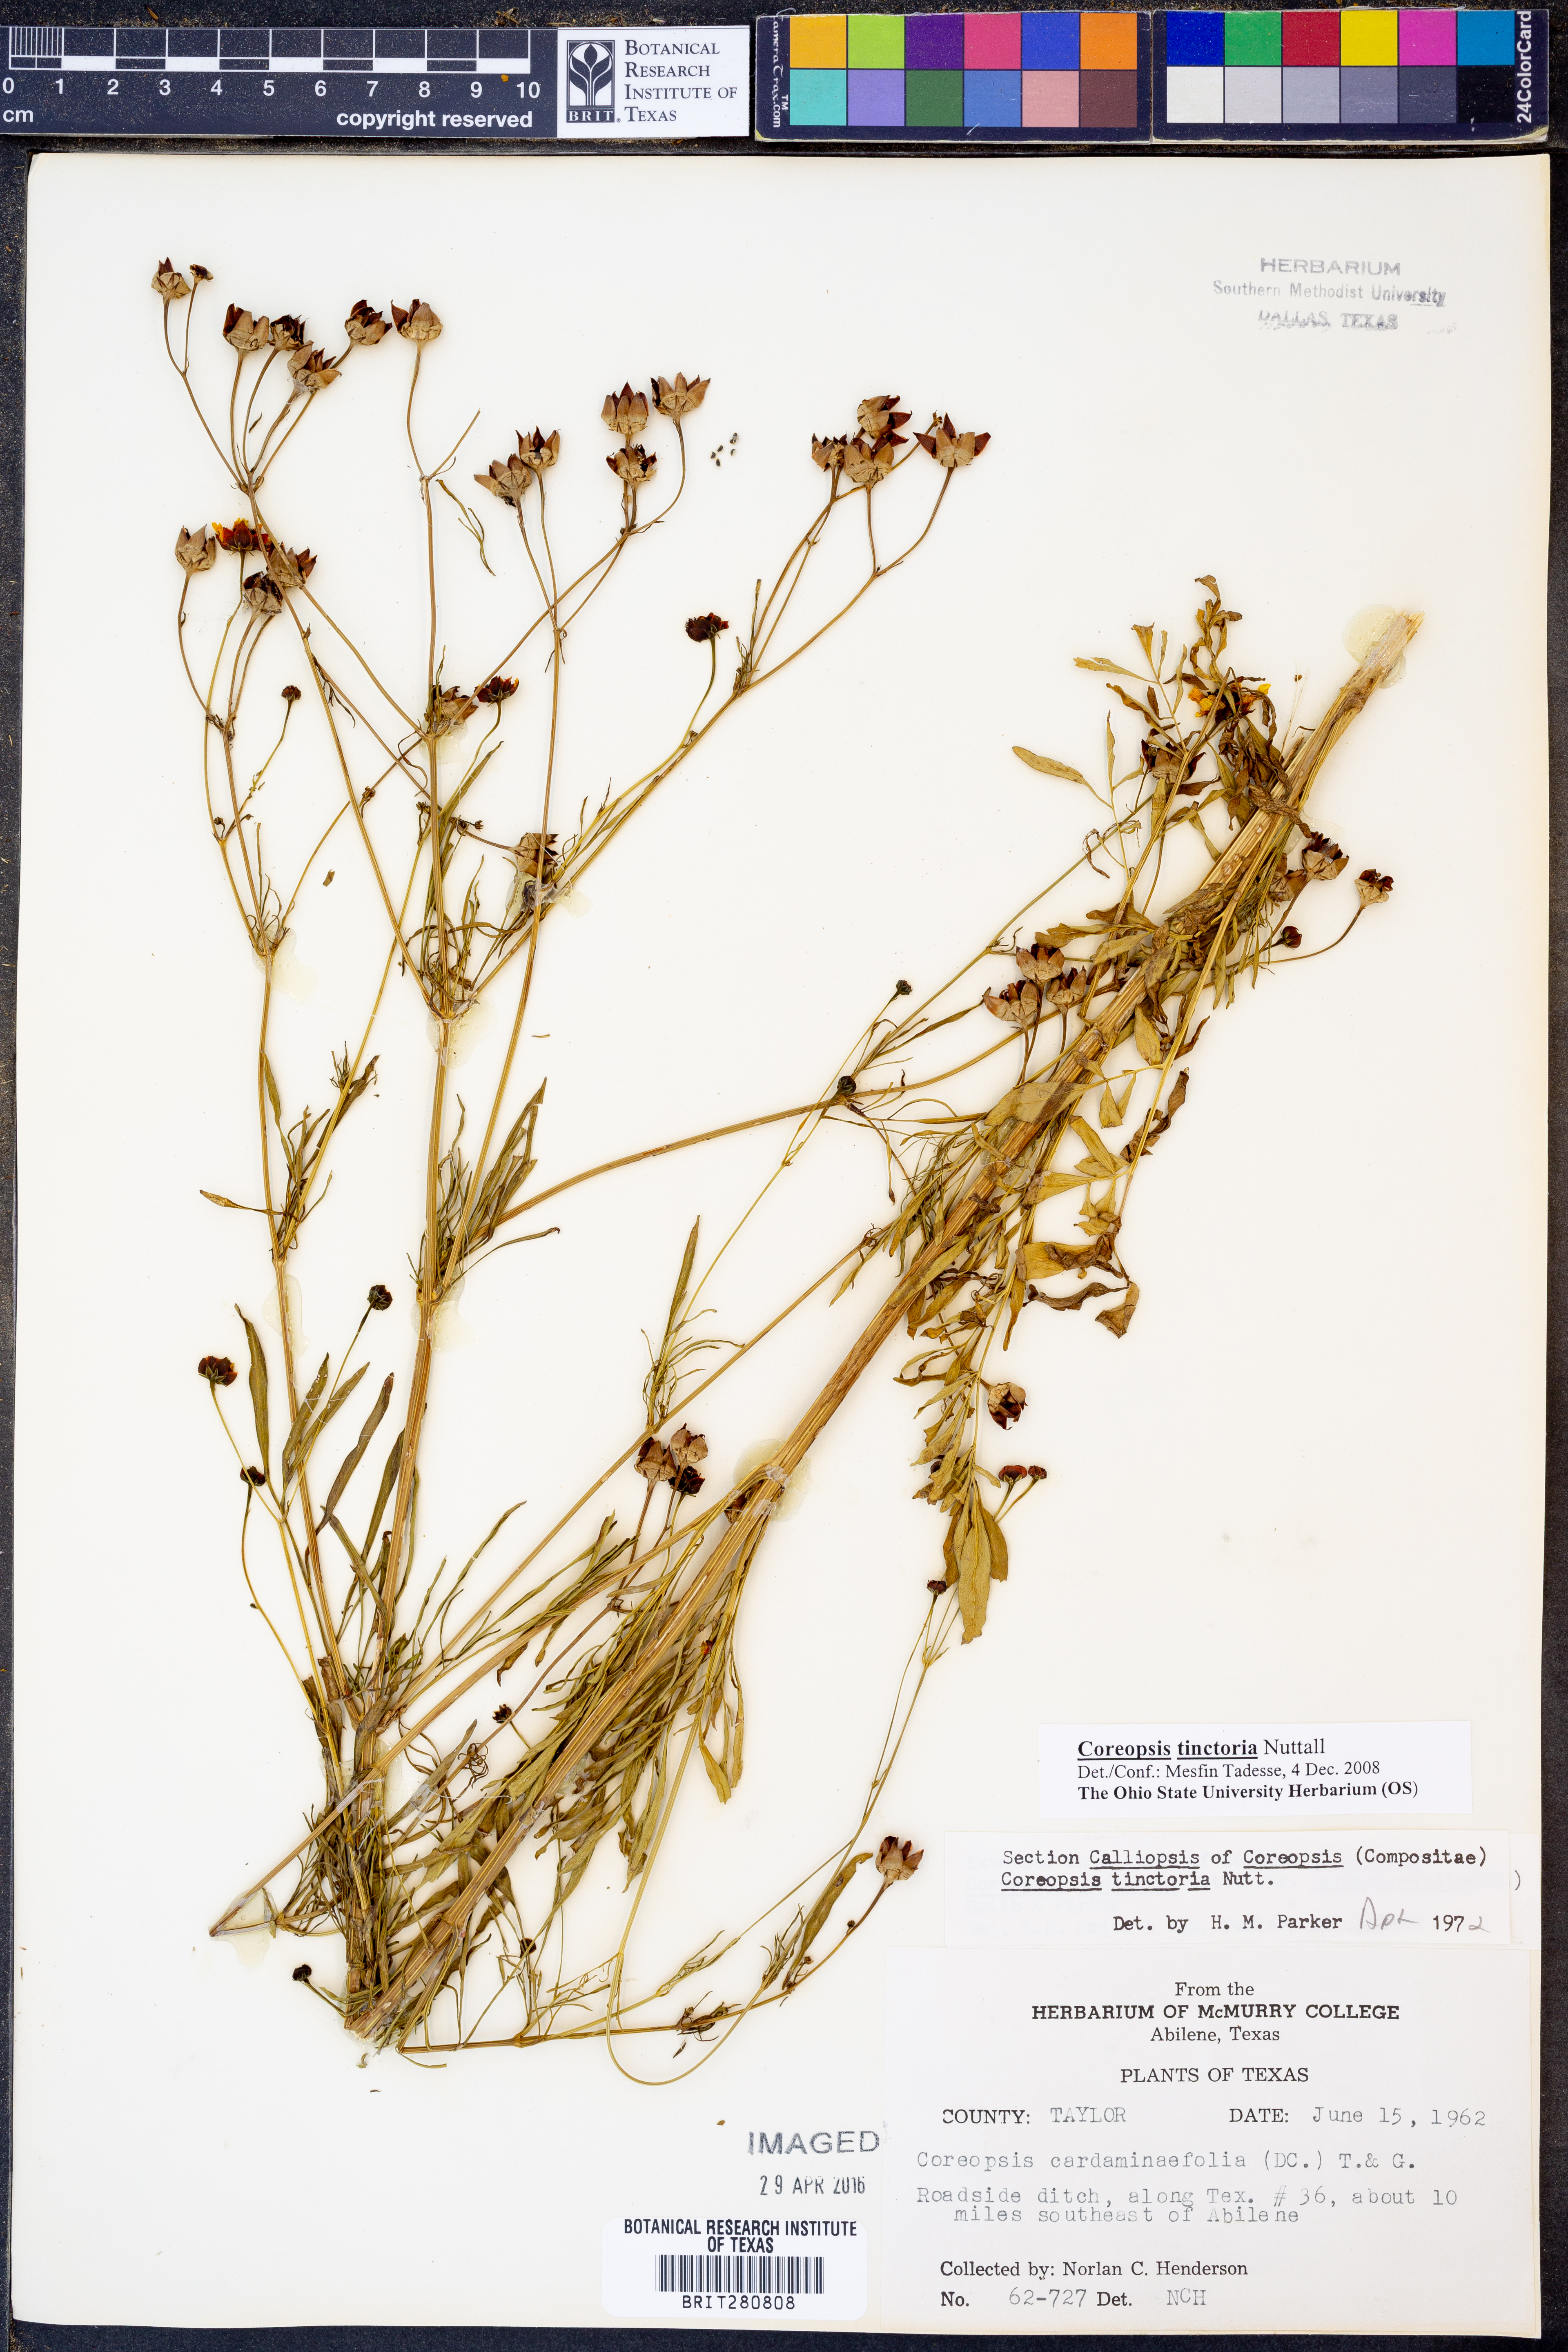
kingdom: Plantae
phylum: Tracheophyta
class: Magnoliopsida
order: Asterales
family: Asteraceae
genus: Coreopsis
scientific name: Coreopsis tinctoria
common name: Garden tickseed
